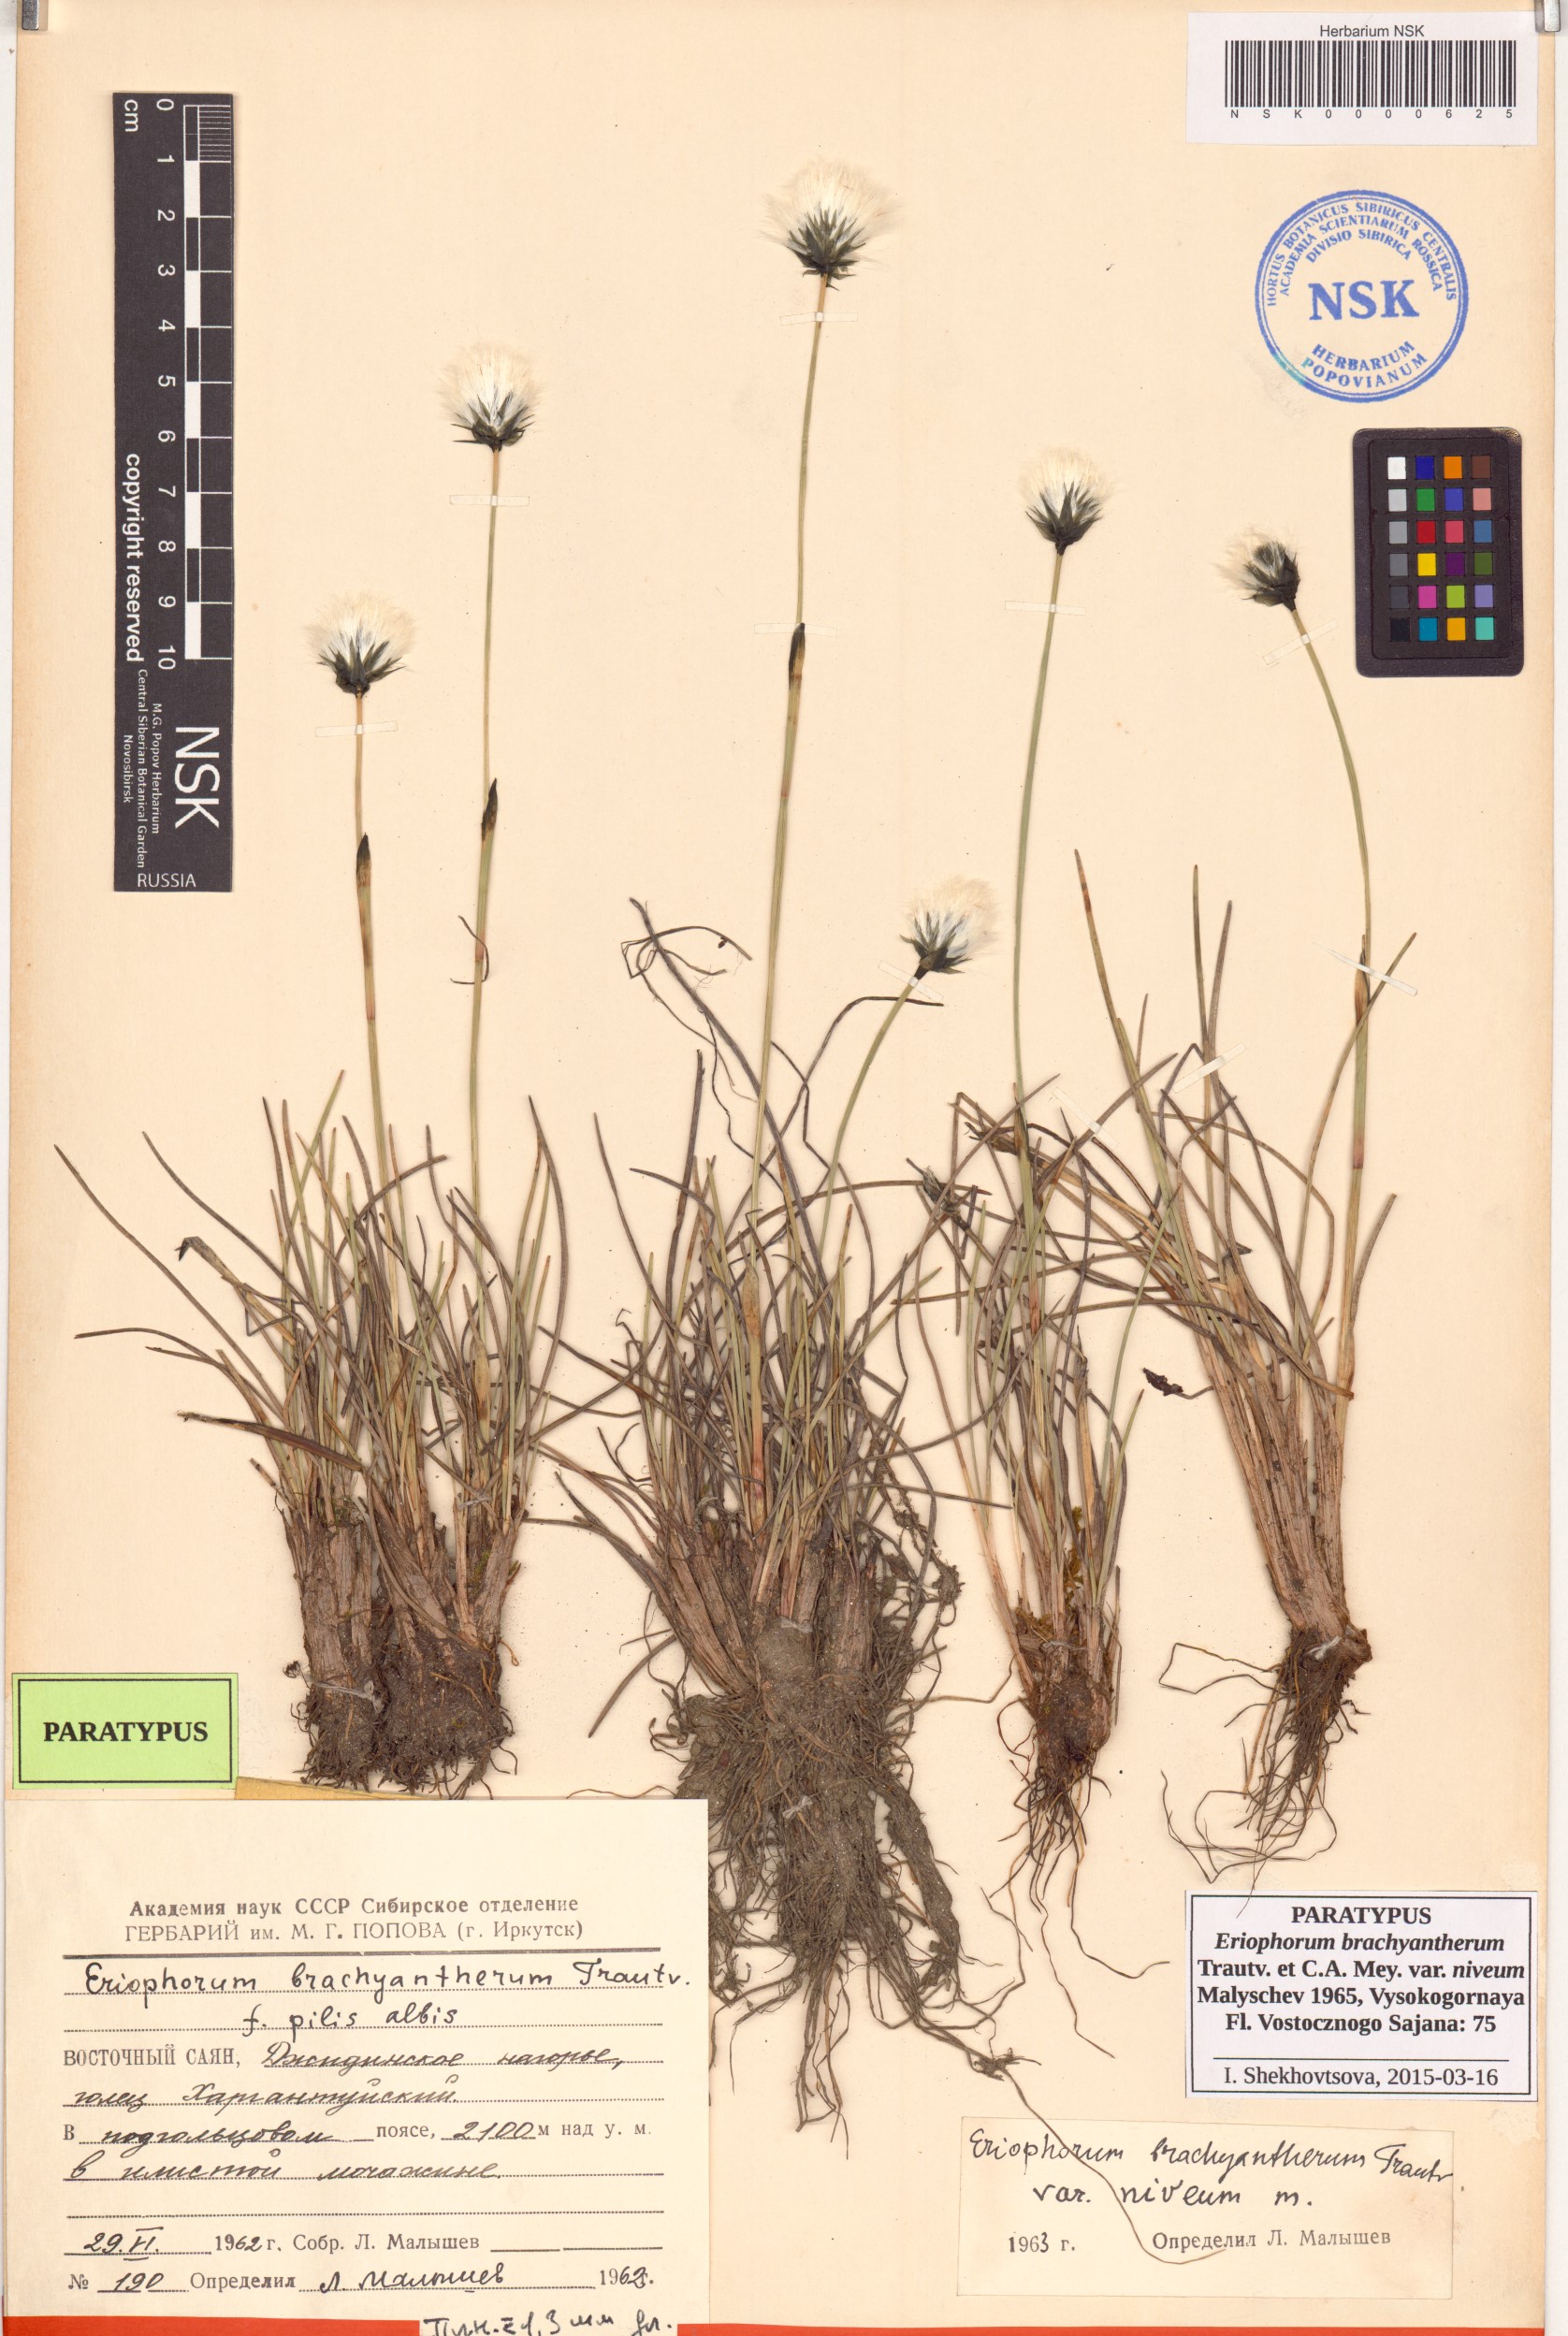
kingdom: Plantae
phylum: Tracheophyta
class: Liliopsida
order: Poales
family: Cyperaceae
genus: Eriophorum
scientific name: Eriophorum brachyantherum
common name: Closed-sheathed cottongrass
